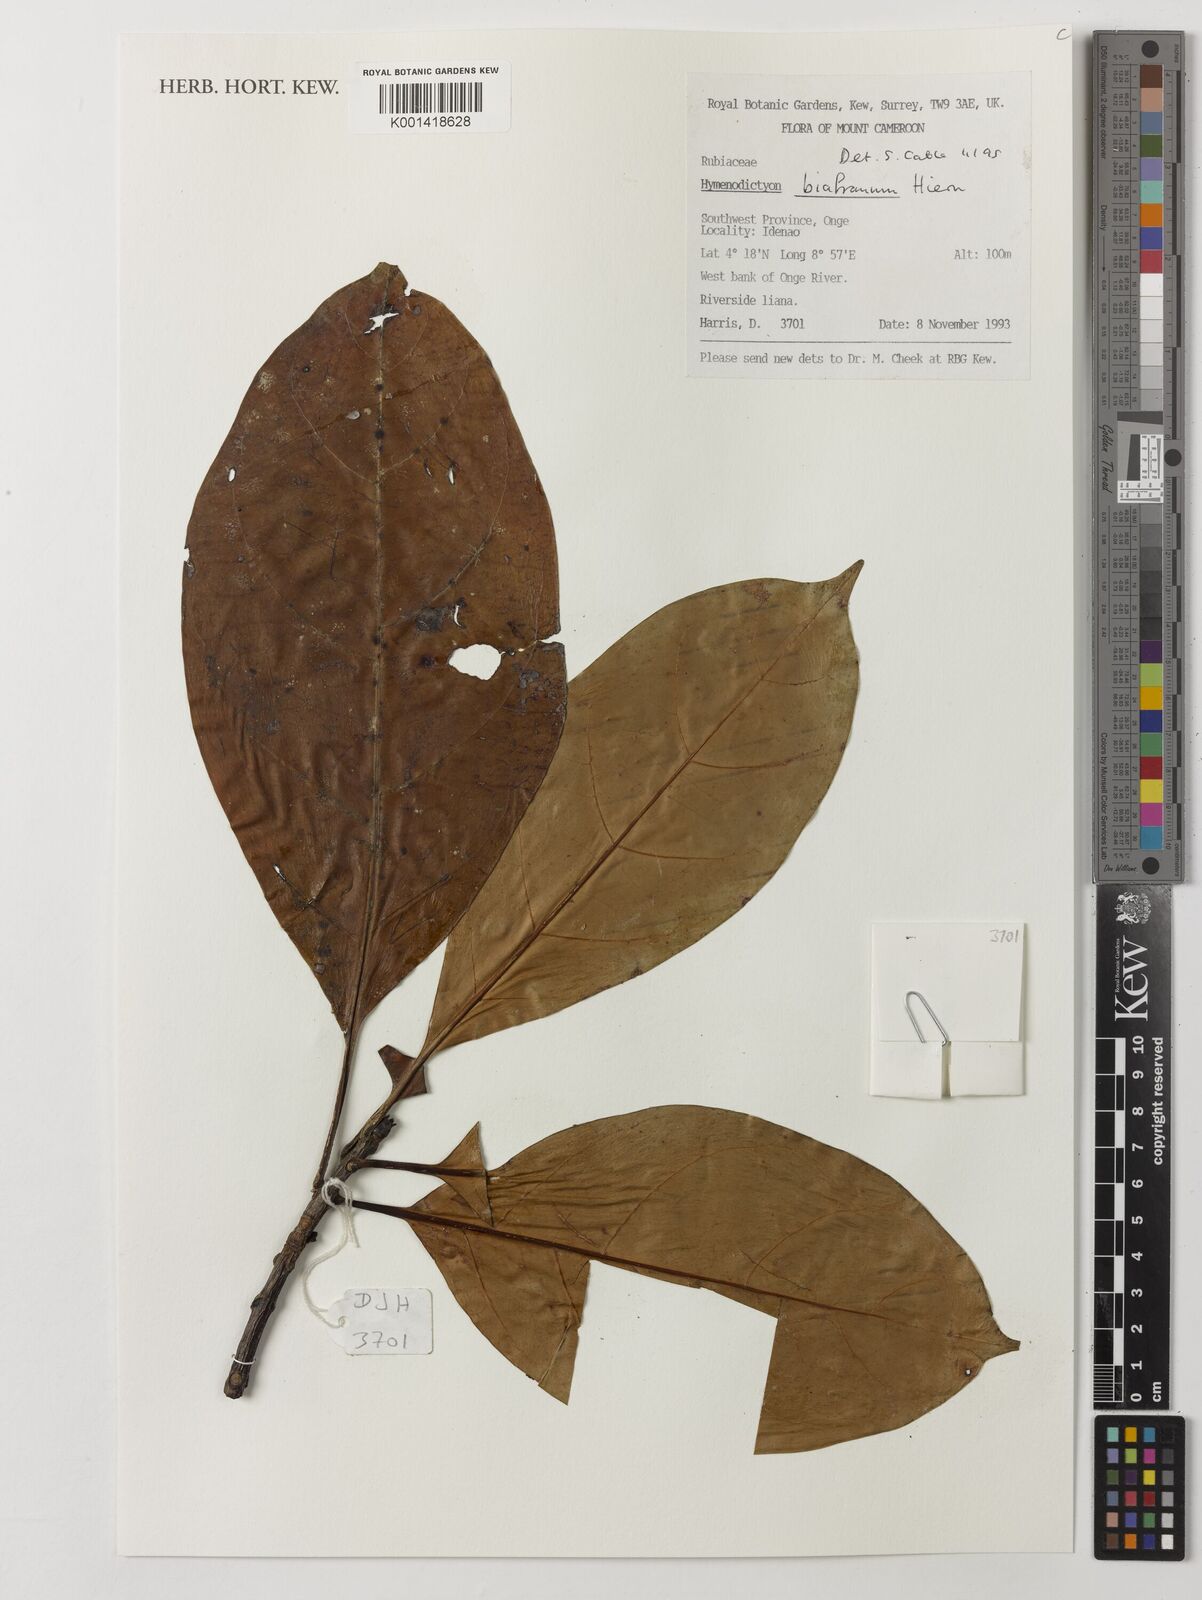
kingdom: Plantae
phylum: Tracheophyta
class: Magnoliopsida
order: Gentianales
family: Rubiaceae
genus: Hymenodictyon
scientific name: Hymenodictyon biafranum
